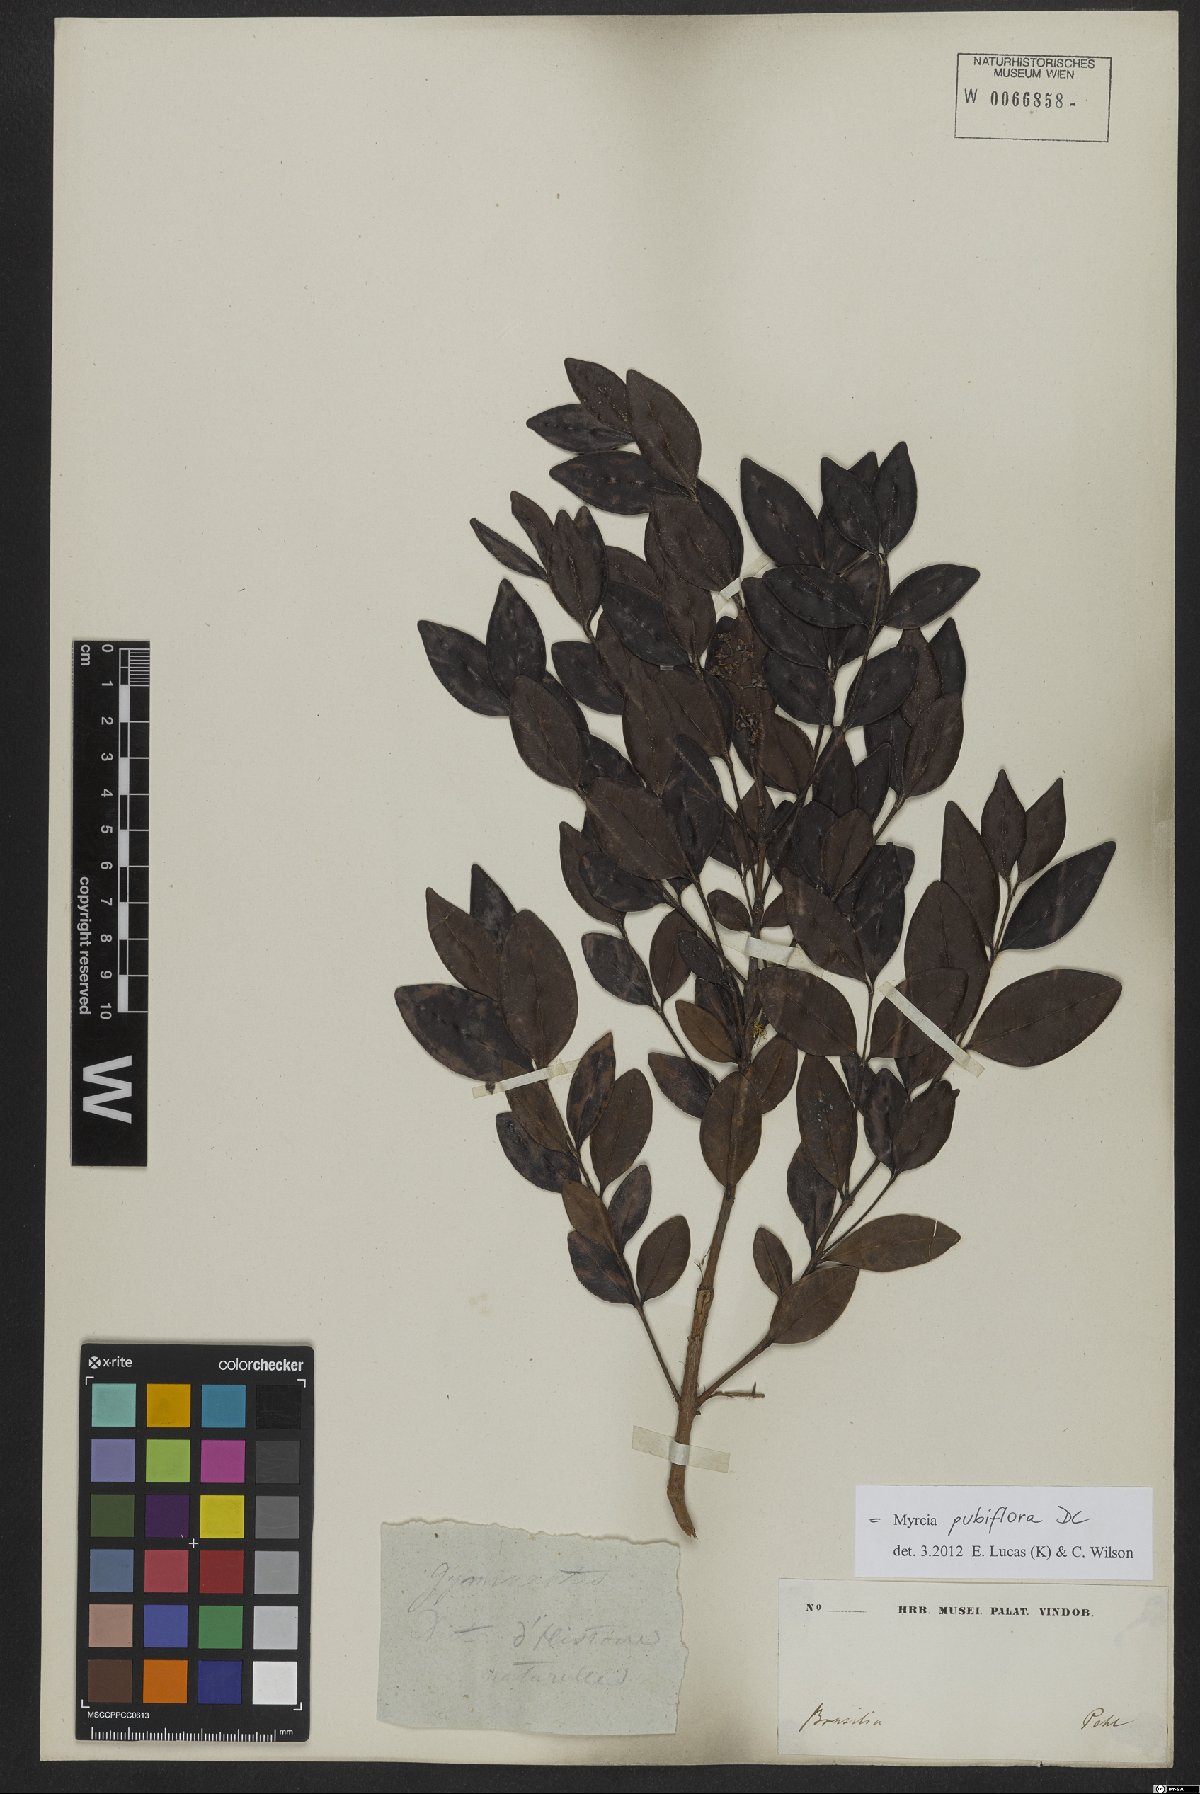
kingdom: Plantae
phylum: Tracheophyta
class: Magnoliopsida
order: Myrtales
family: Myrtaceae
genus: Myrcia
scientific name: Myrcia pubiflora
